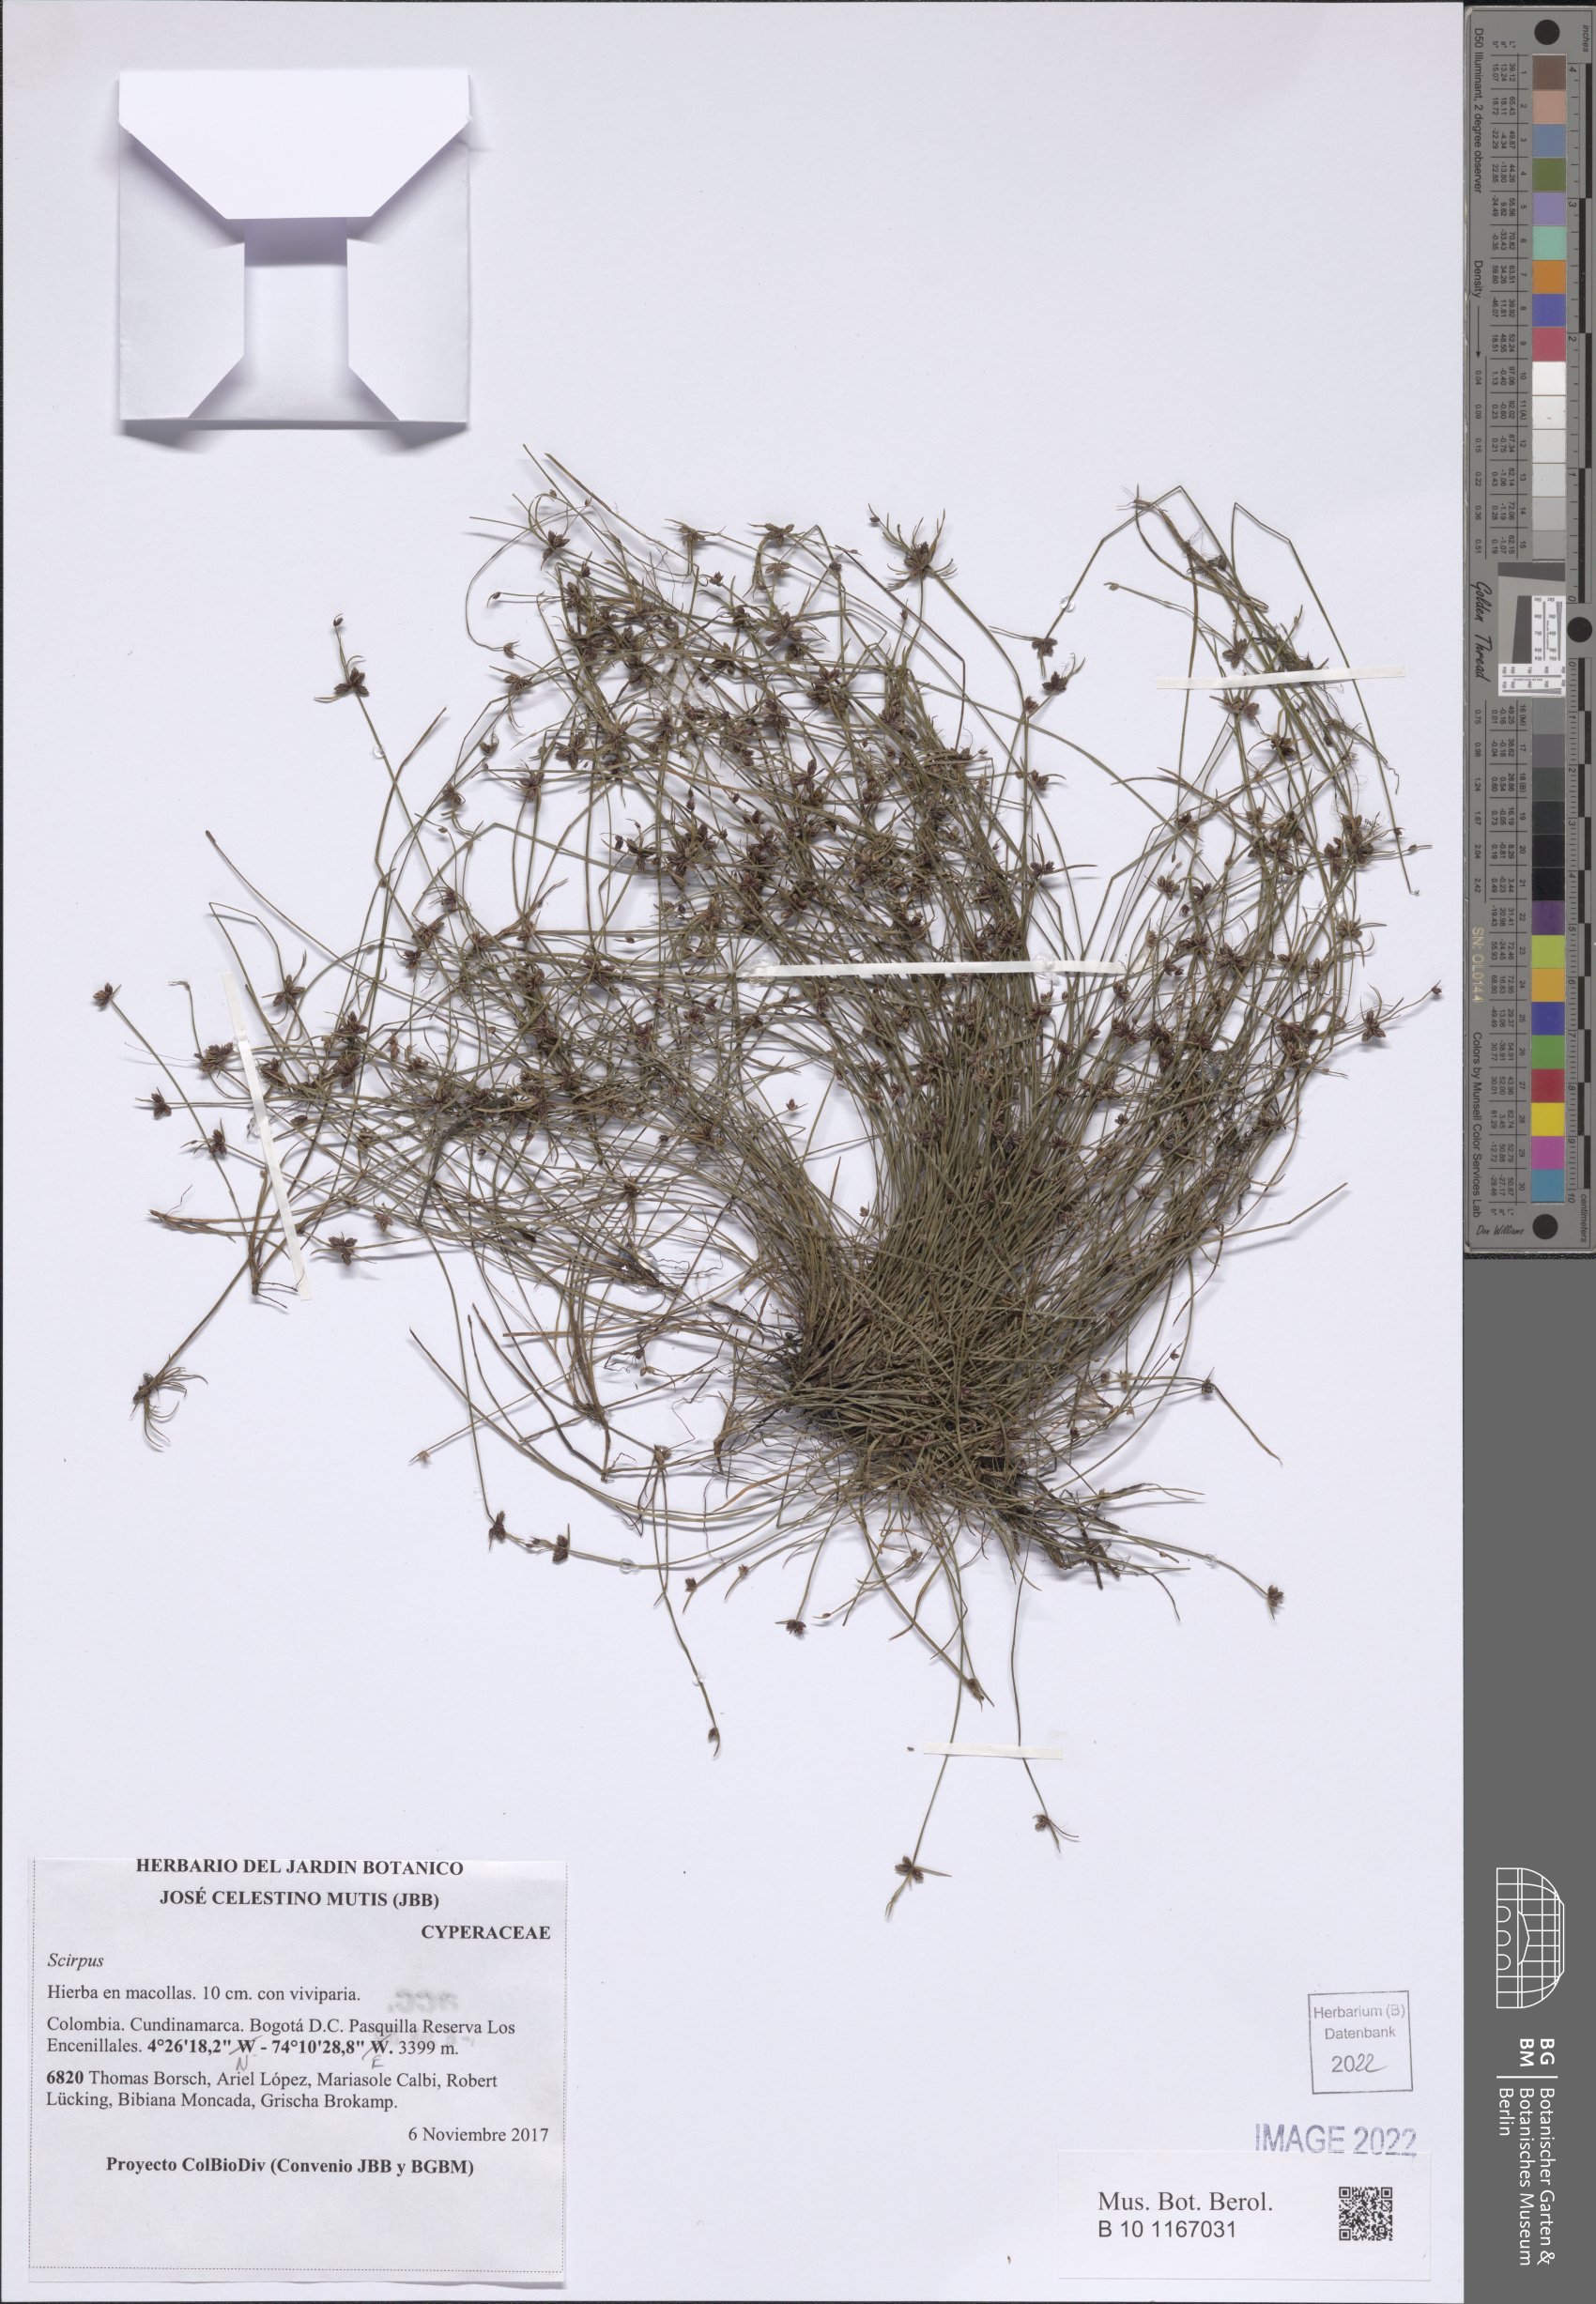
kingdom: Plantae
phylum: Tracheophyta
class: Liliopsida
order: Poales
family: Cyperaceae
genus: Scirpus
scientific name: Scirpus
